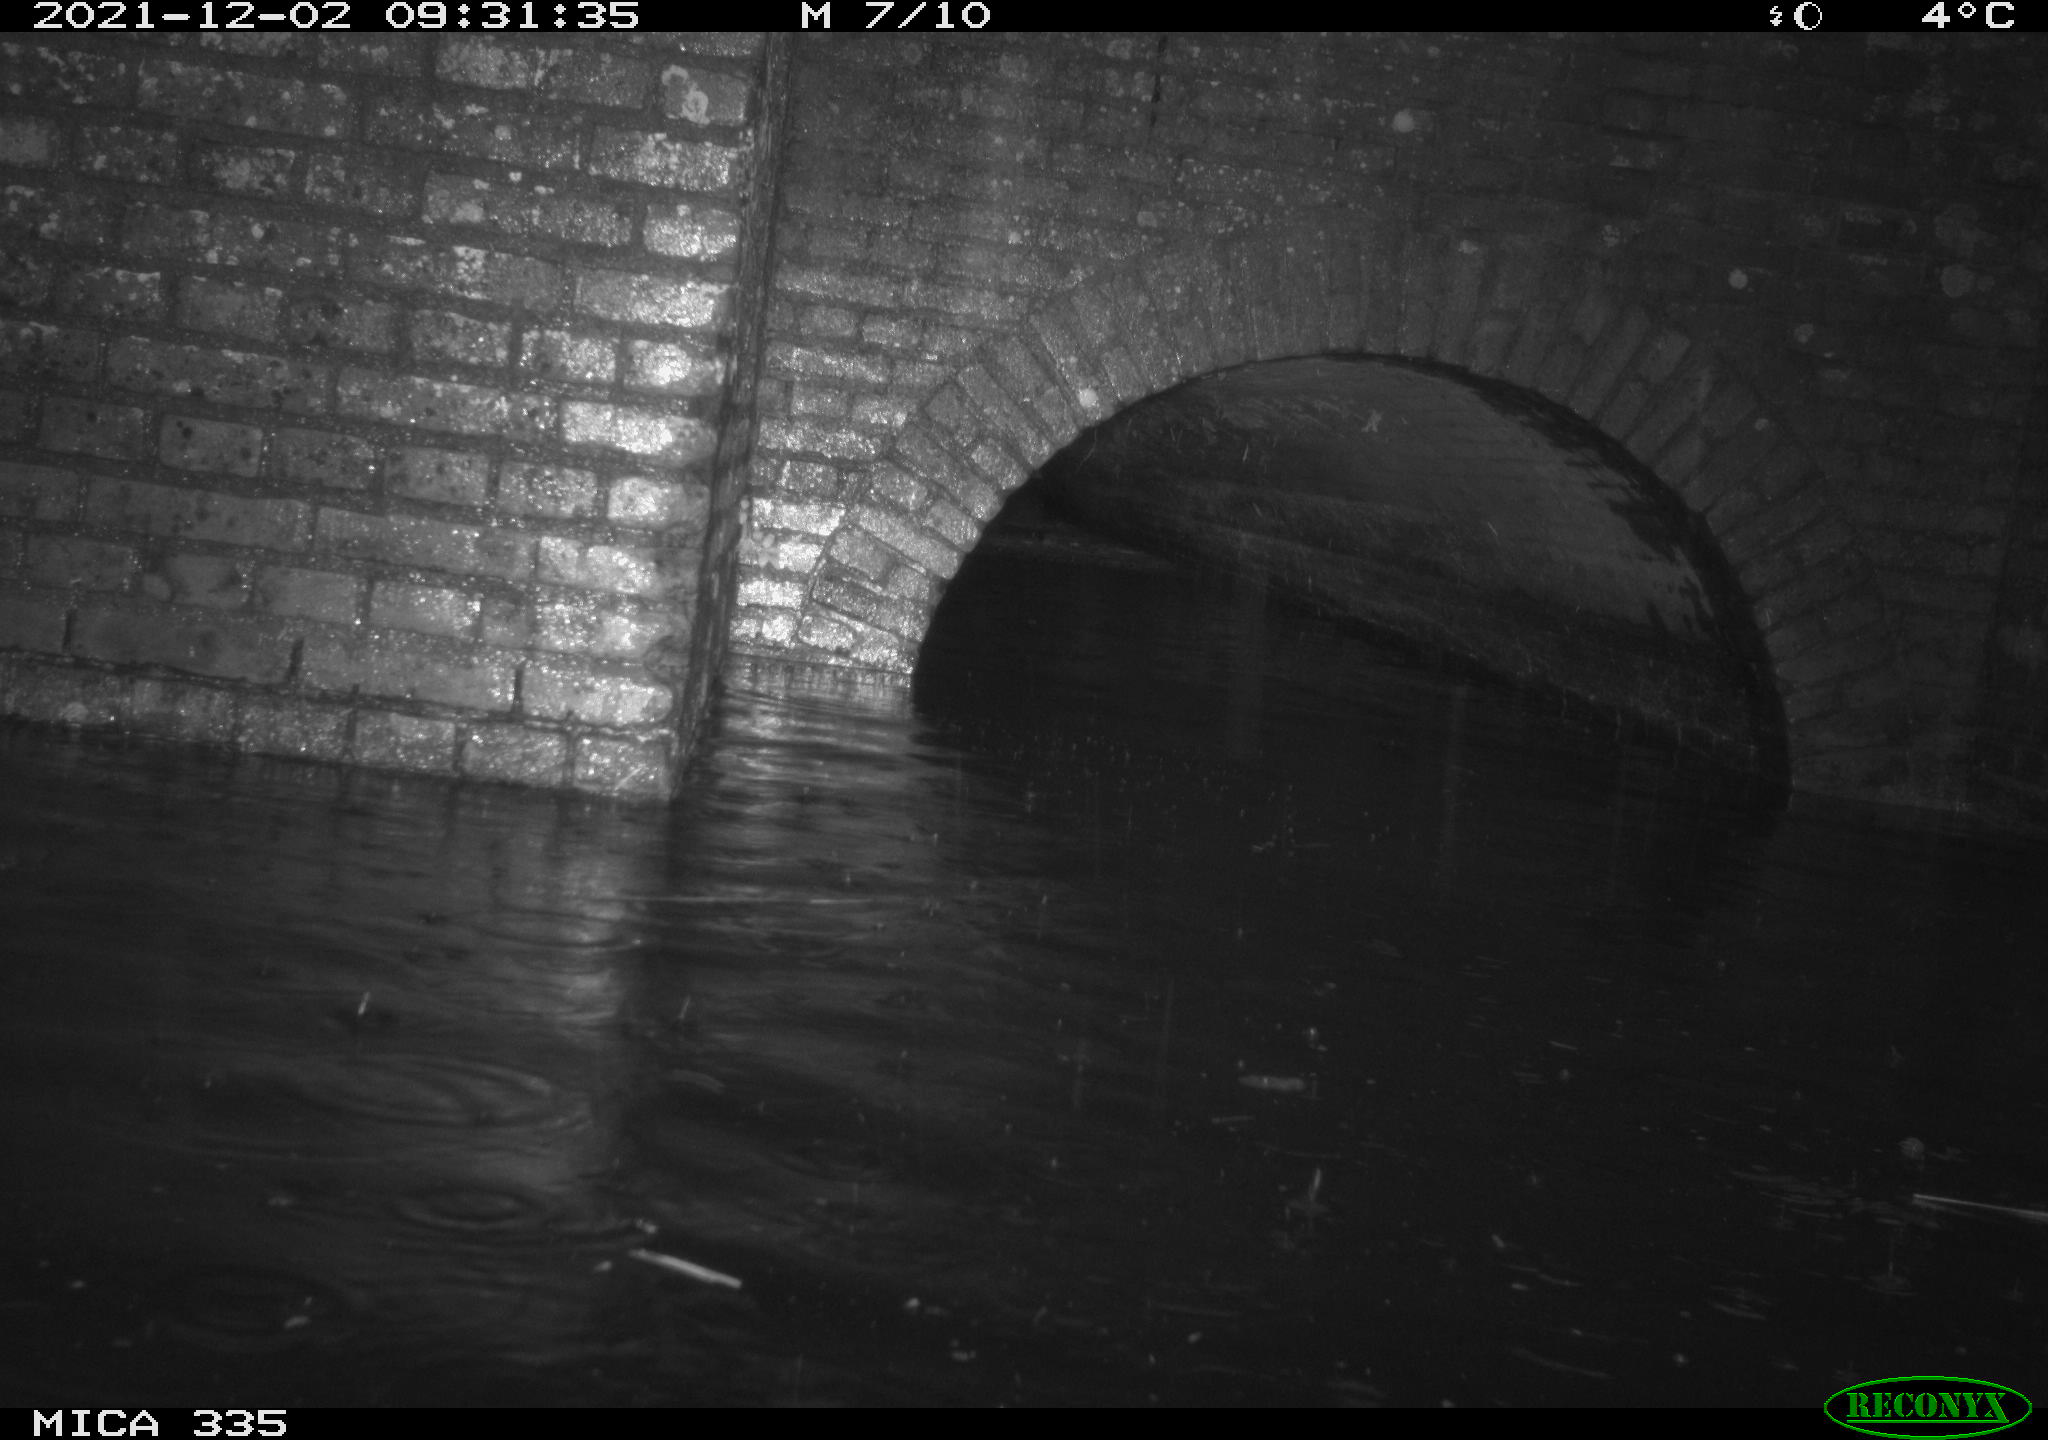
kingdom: Animalia
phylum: Chordata
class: Aves
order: Suliformes
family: Phalacrocoracidae
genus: Phalacrocorax
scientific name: Phalacrocorax carbo
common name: Great cormorant
